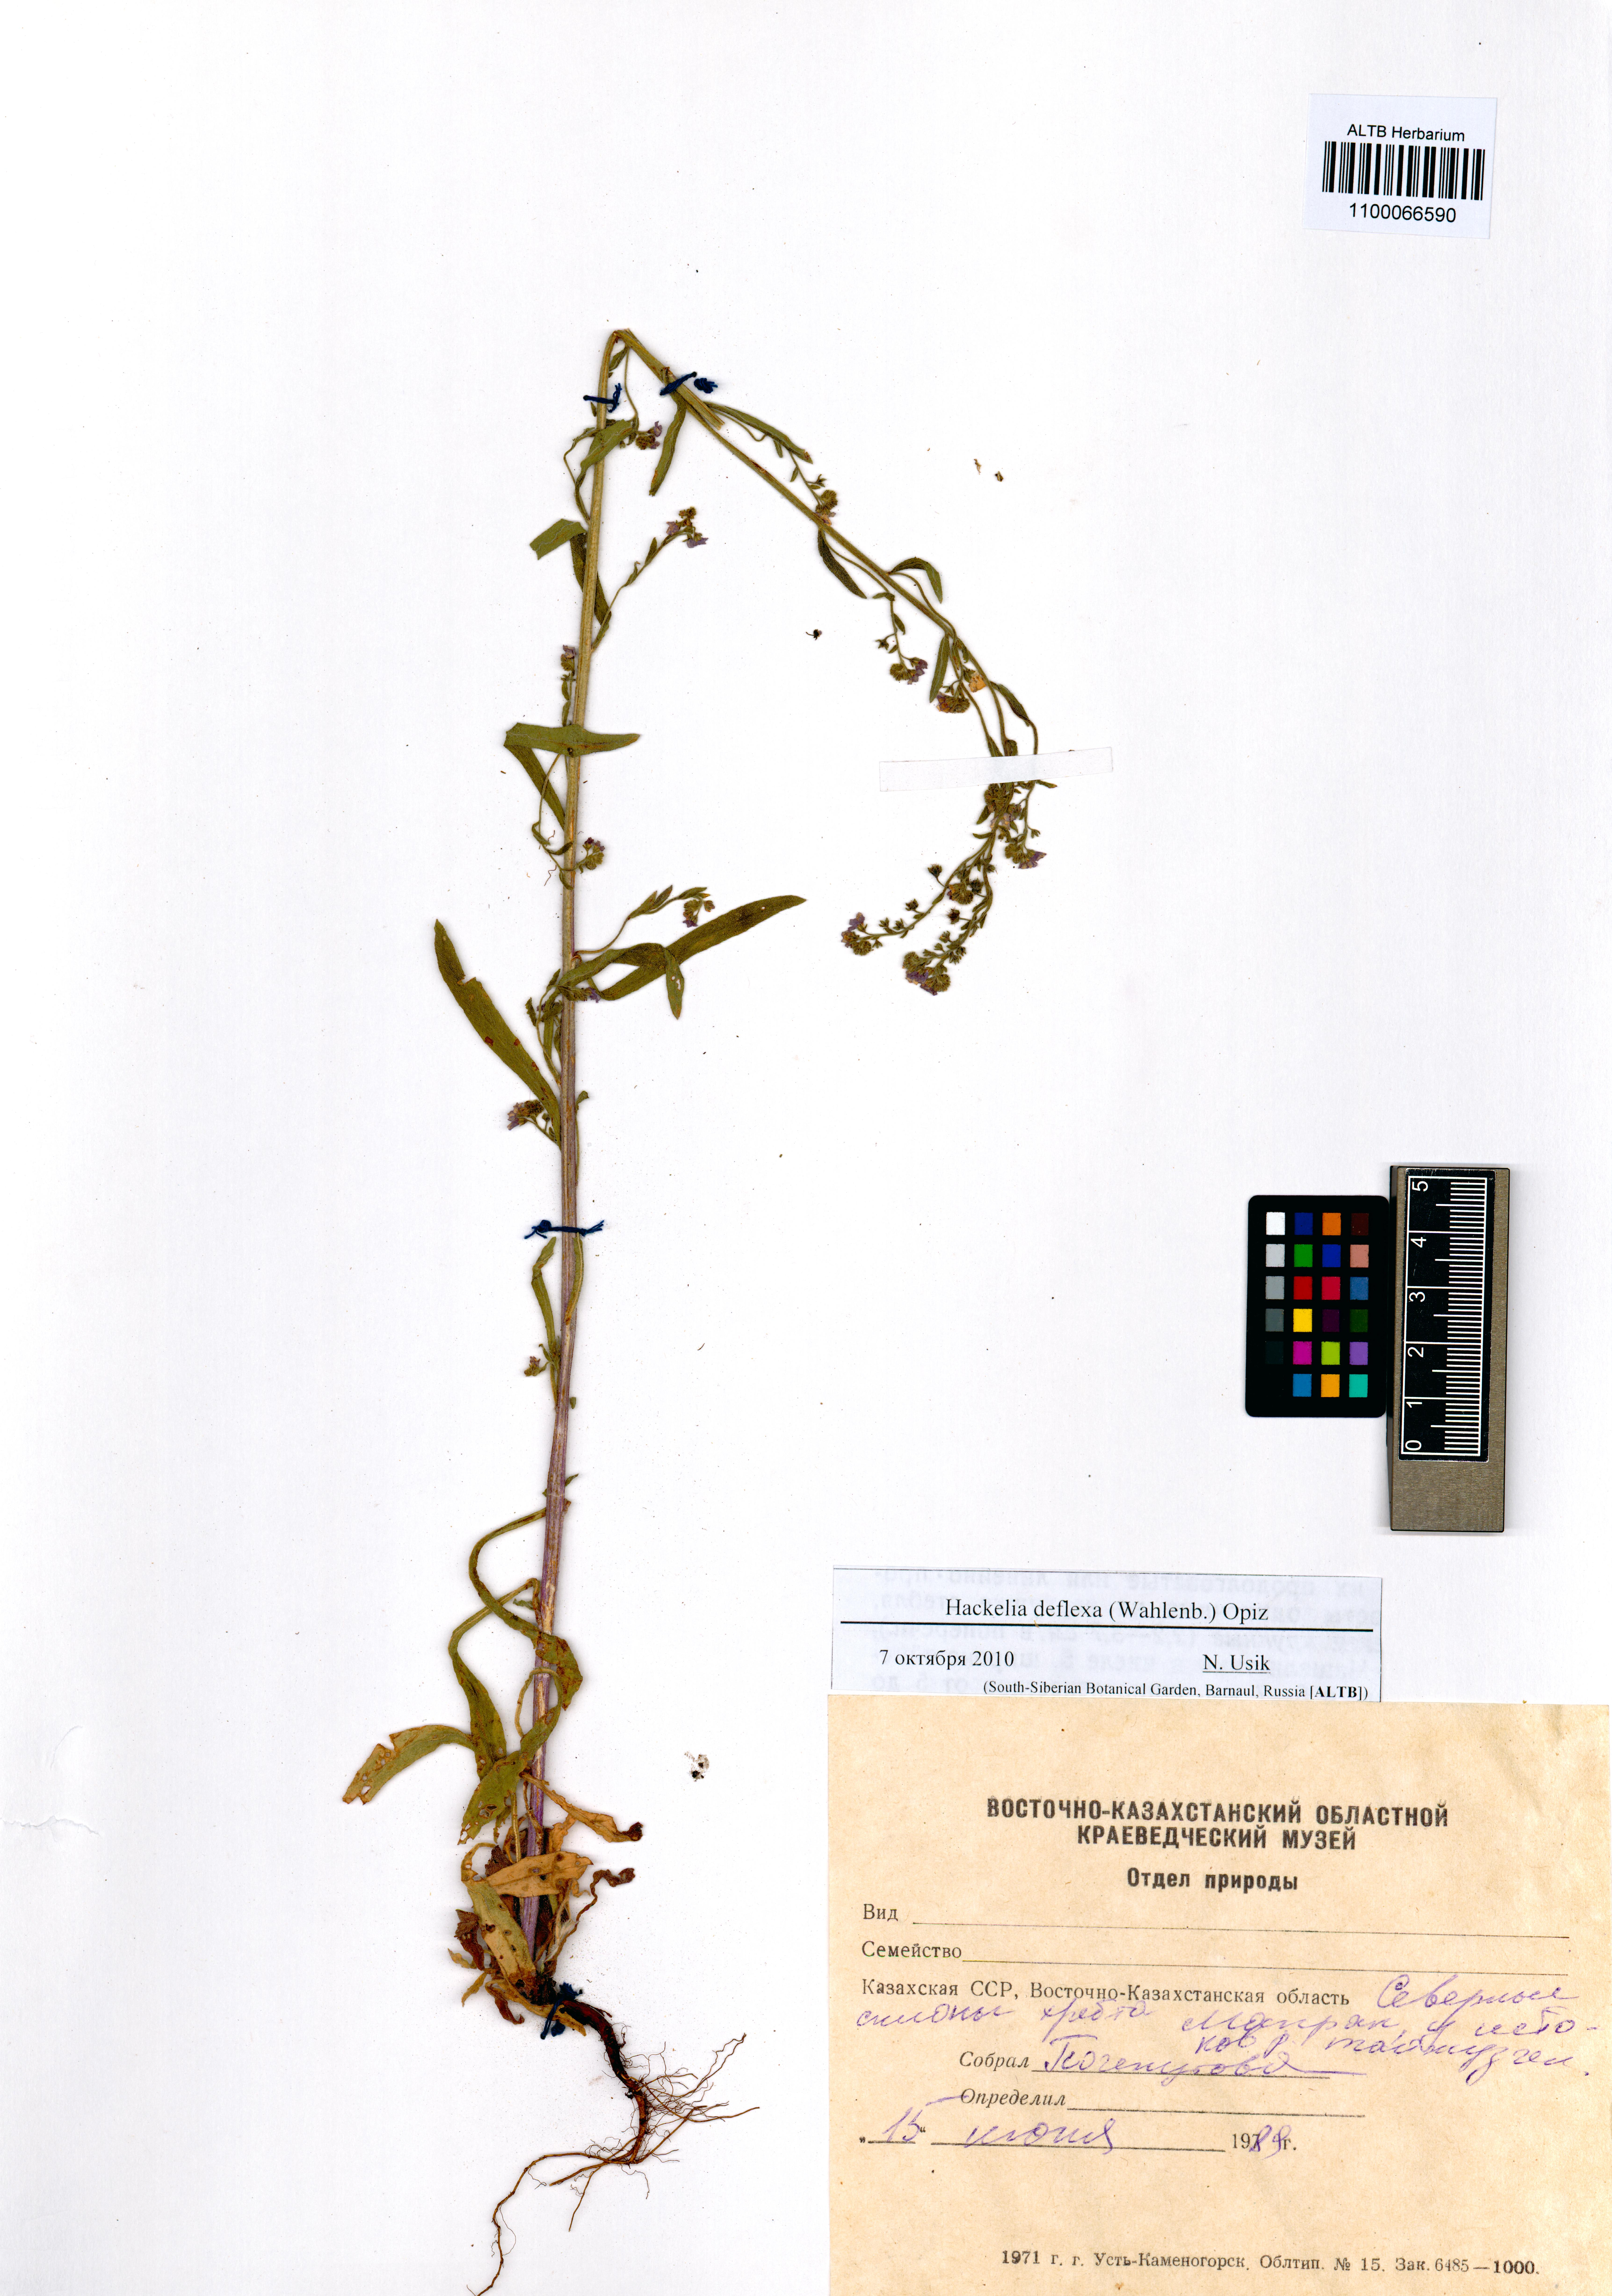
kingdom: Plantae
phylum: Tracheophyta
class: Magnoliopsida
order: Boraginales
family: Boraginaceae
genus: Hackelia
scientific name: Hackelia deflexa
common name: Nodding stickseed
